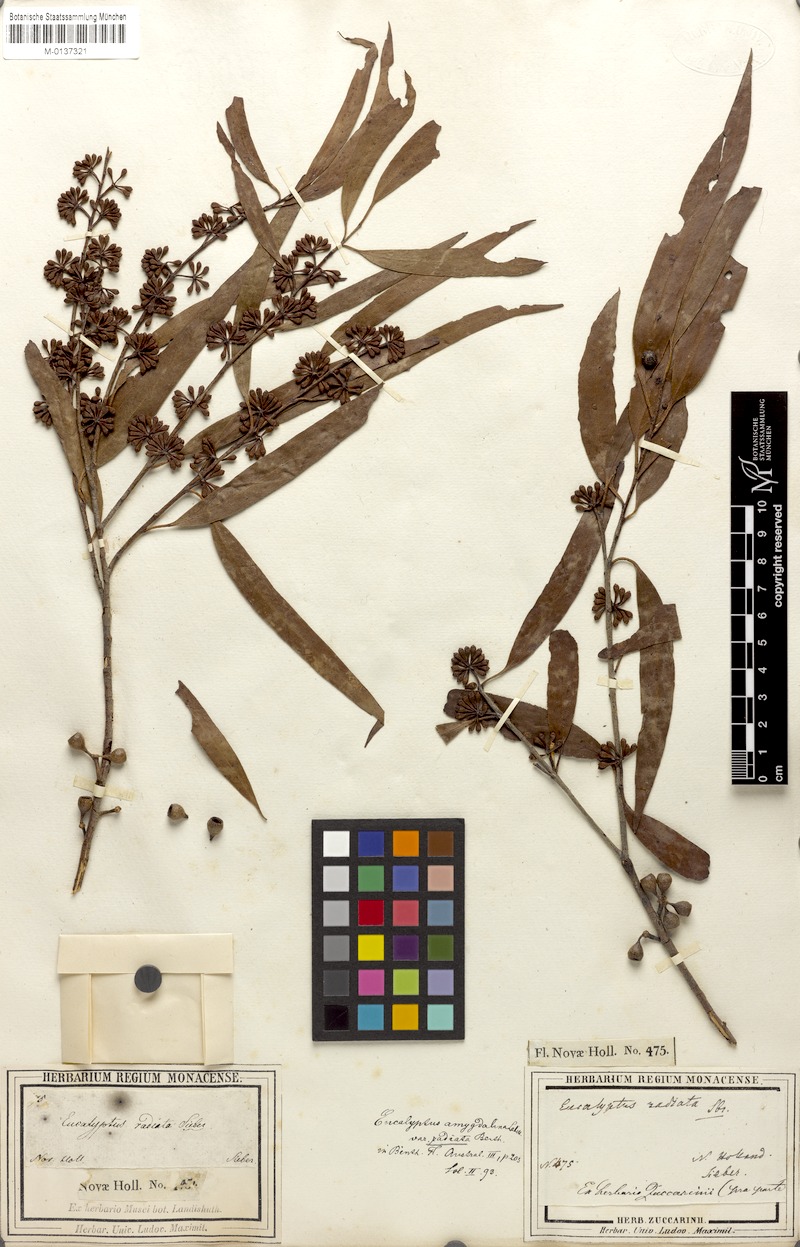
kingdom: Plantae
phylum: Tracheophyta
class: Magnoliopsida
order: Myrtales
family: Myrtaceae
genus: Eucalyptus
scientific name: Eucalyptus radiata
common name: Narrow-leaved-peppermint
